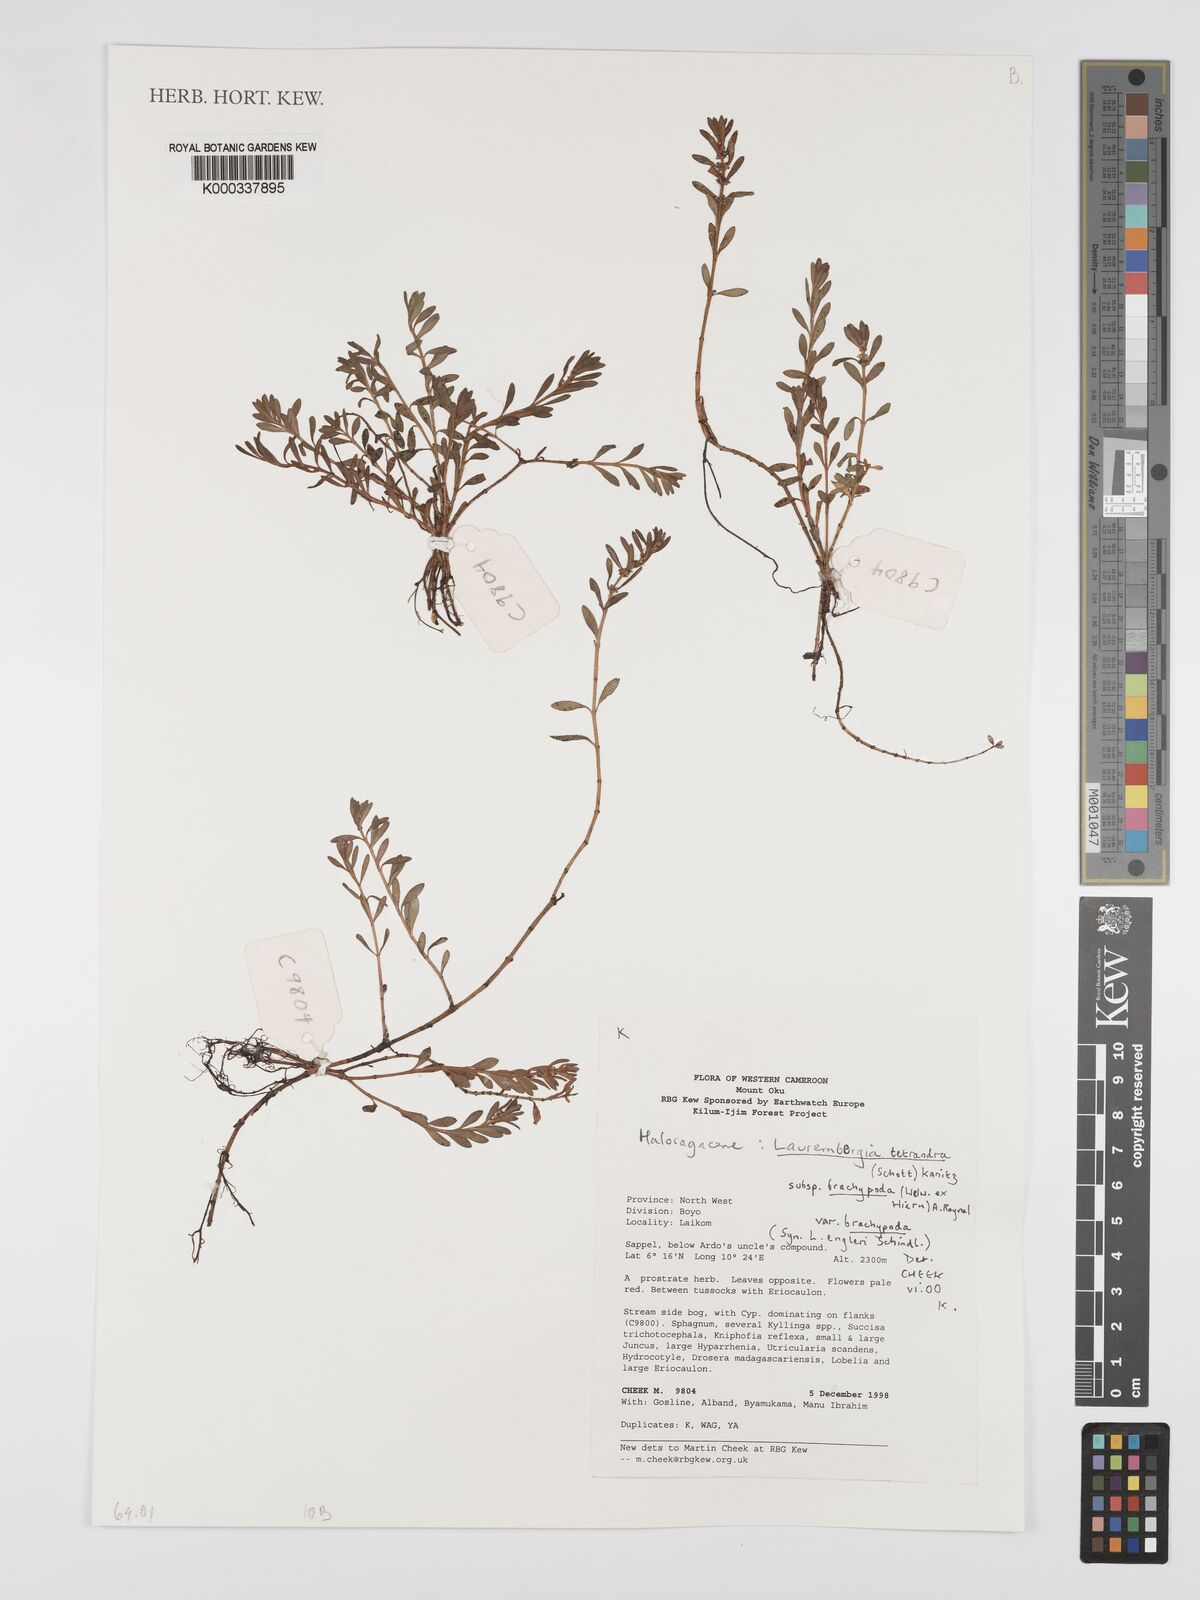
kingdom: Plantae
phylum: Tracheophyta
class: Magnoliopsida
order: Saxifragales
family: Haloragaceae
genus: Laurembergia
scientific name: Laurembergia tetrandra
